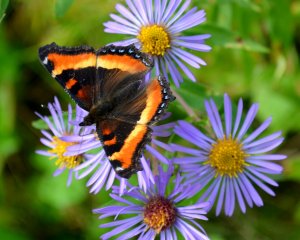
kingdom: Animalia
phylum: Arthropoda
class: Insecta
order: Lepidoptera
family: Nymphalidae
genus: Aglais
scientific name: Aglais milberti
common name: Milbert's Tortoiseshell
